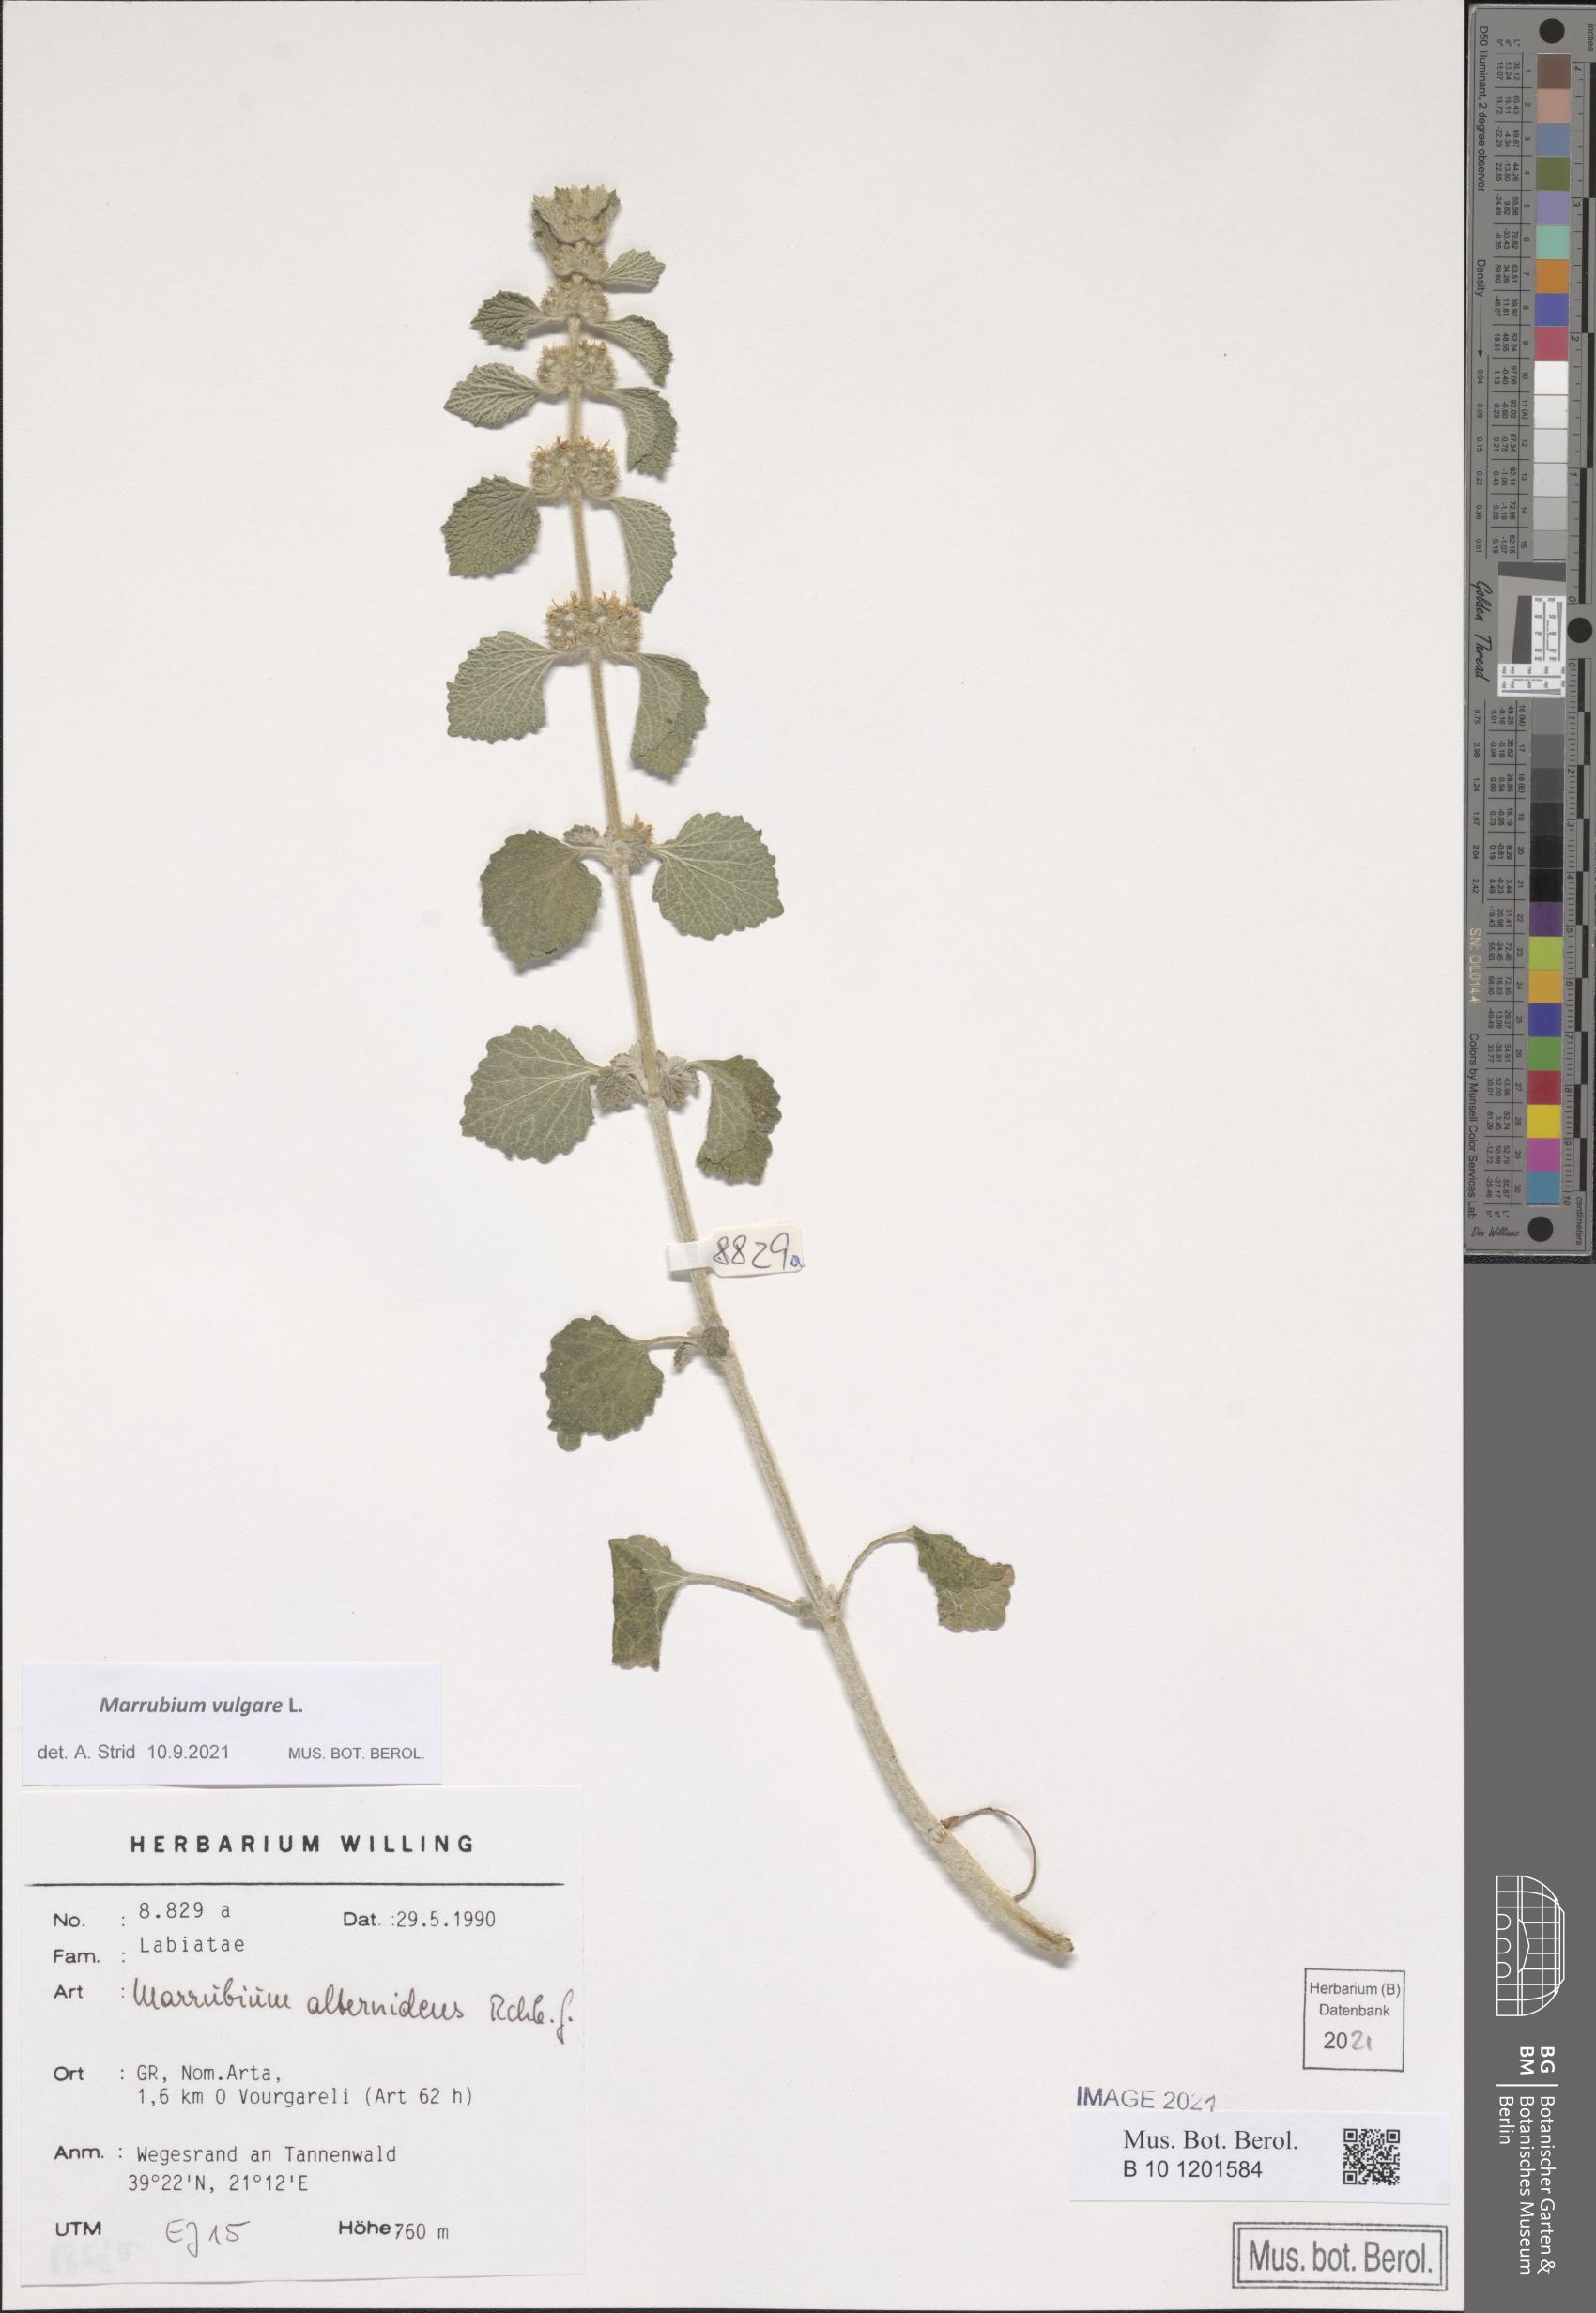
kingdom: Plantae
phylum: Tracheophyta
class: Magnoliopsida
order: Lamiales
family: Lamiaceae
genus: Marrubium
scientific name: Marrubium vulgare
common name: Horehound
